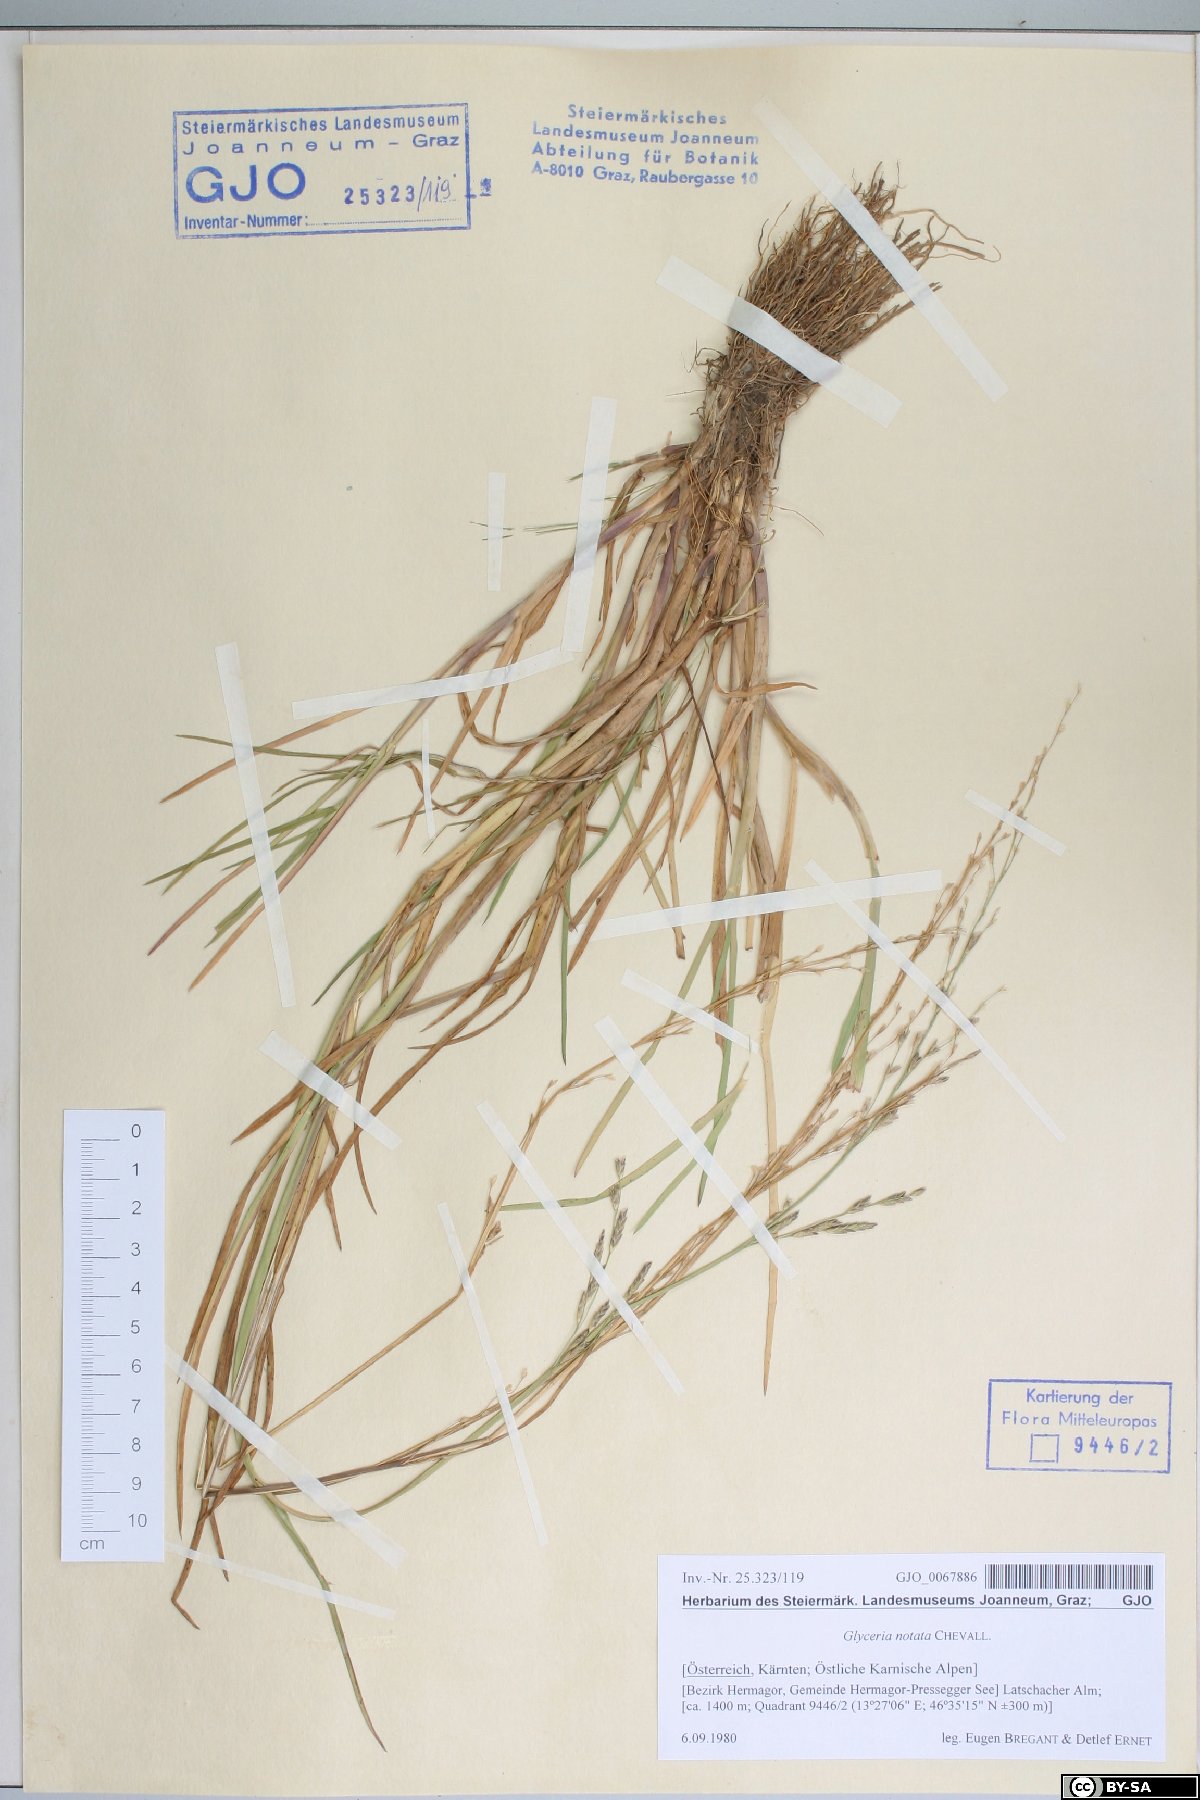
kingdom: Plantae
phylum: Tracheophyta
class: Liliopsida
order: Poales
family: Poaceae
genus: Glyceria
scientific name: Glyceria notata
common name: Plicate sweet-grass
